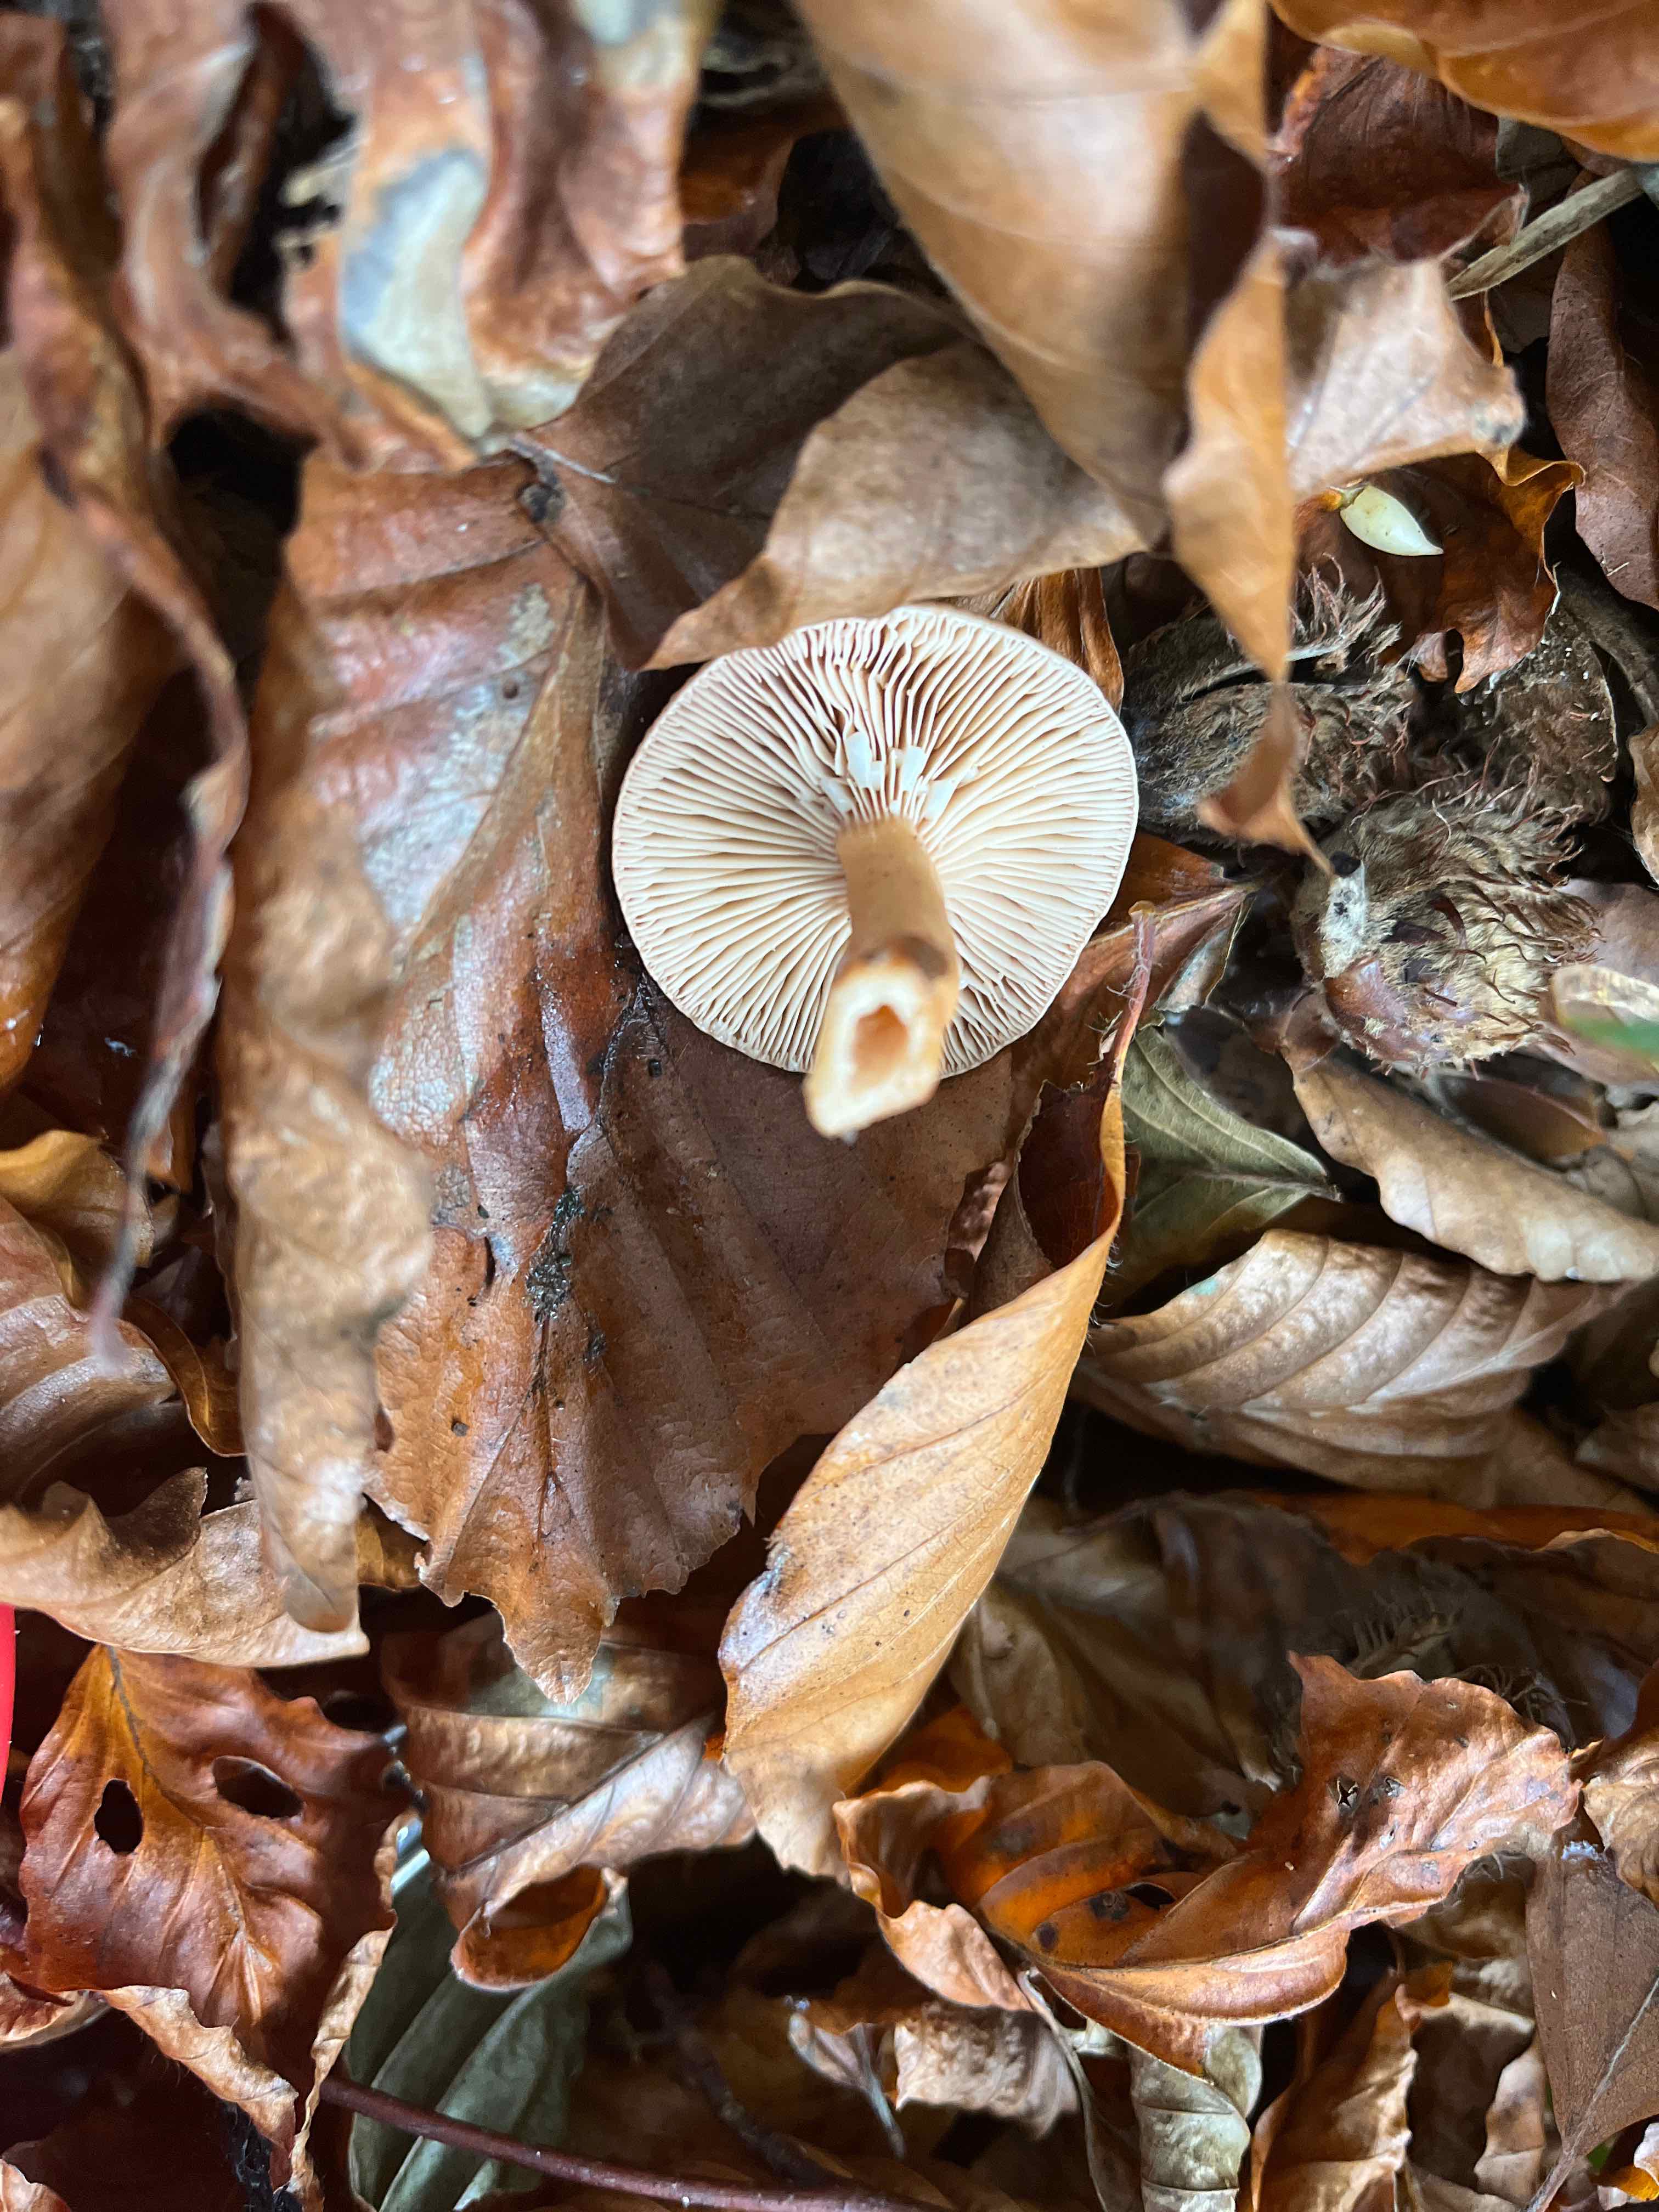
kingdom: Fungi
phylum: Basidiomycota
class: Agaricomycetes
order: Russulales
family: Russulaceae
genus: Lactarius
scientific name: Lactarius subdulcis
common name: sødlig mælkehat
